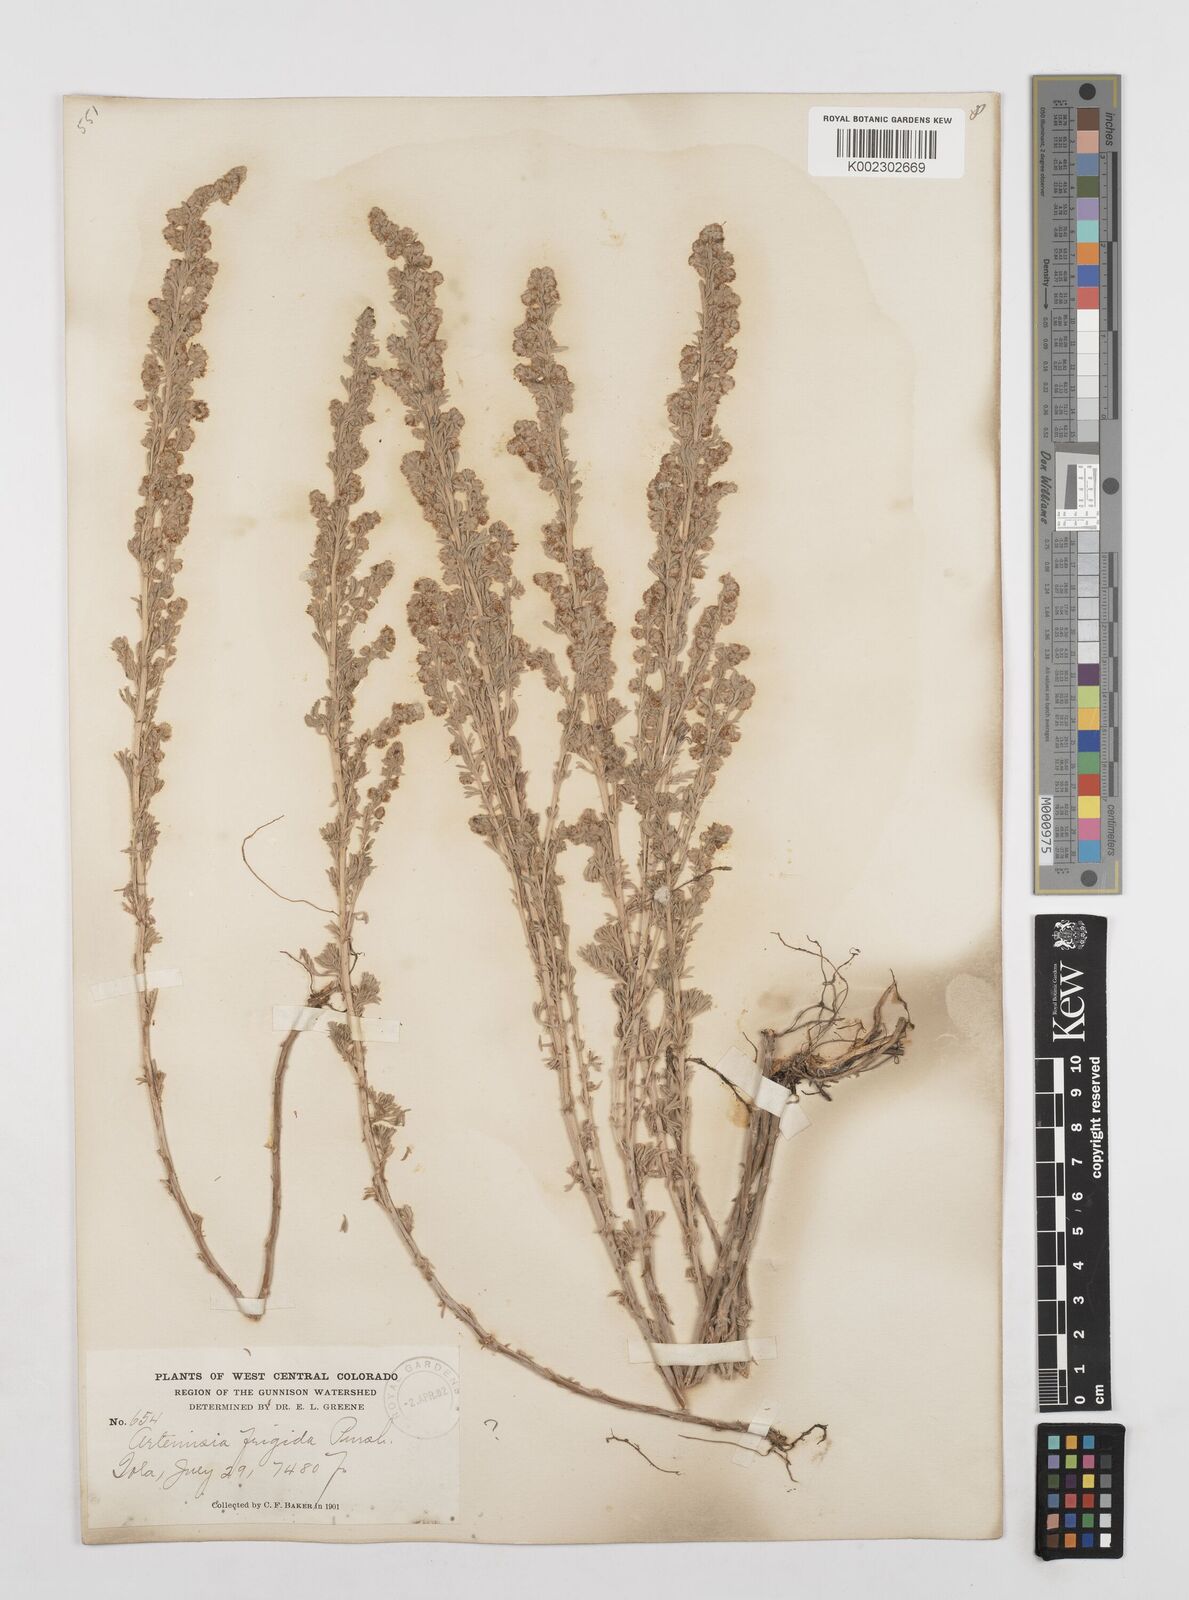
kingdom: Plantae
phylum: Tracheophyta
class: Magnoliopsida
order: Asterales
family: Asteraceae
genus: Artemisia
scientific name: Artemisia frigida
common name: Prairie sagewort
